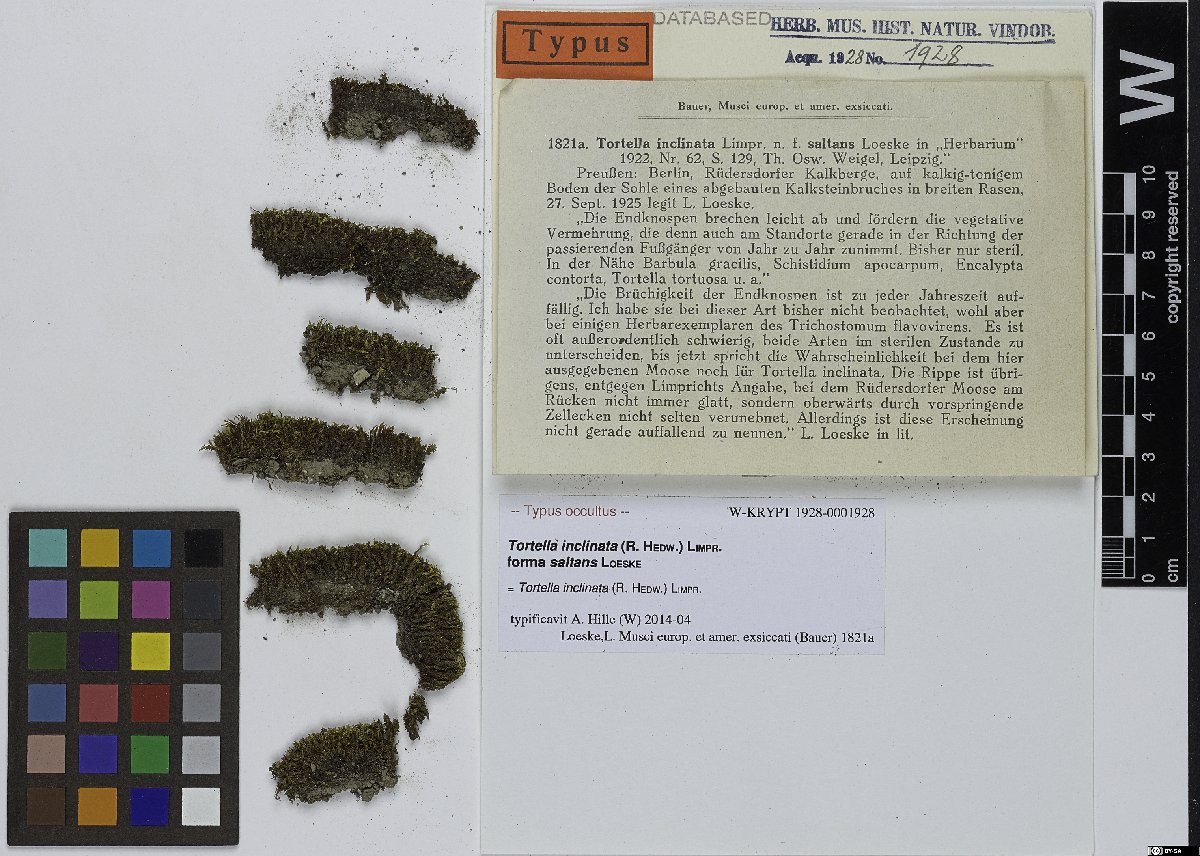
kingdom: Plantae
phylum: Bryophyta
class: Bryopsida
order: Pottiales
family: Pottiaceae
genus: Tortella
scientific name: Tortella inclinata
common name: Inclined twisted moss
